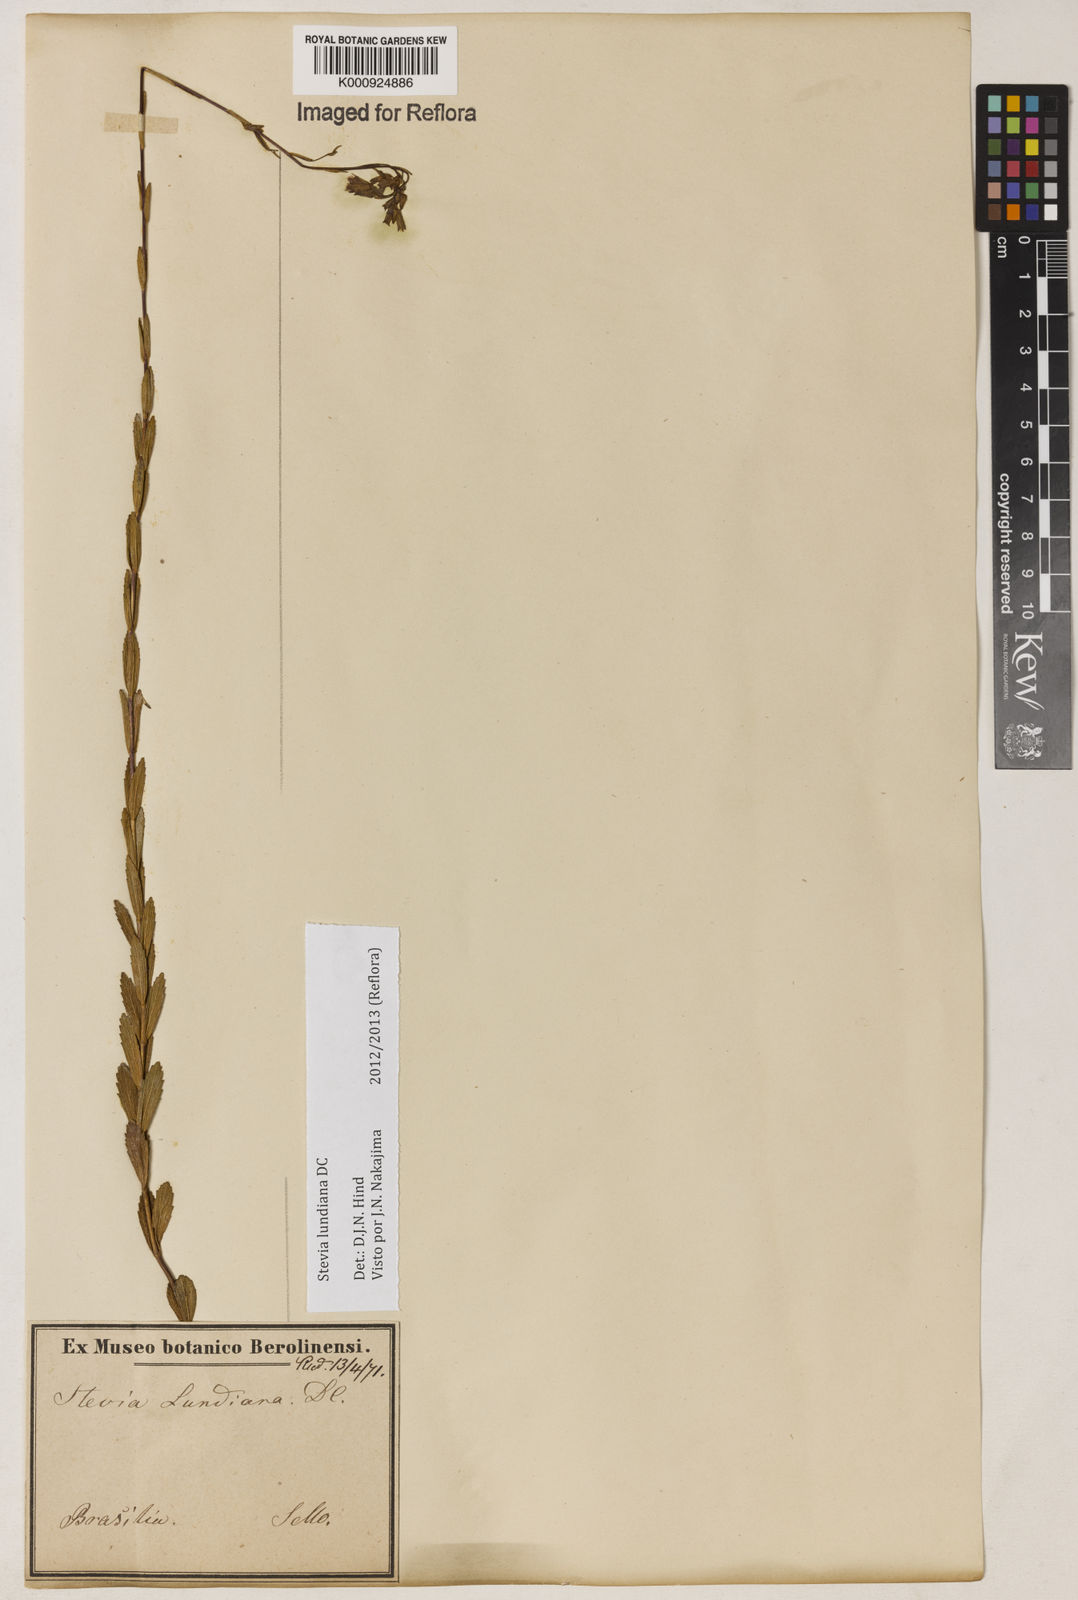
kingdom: Plantae
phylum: Tracheophyta
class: Magnoliopsida
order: Asterales
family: Asteraceae
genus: Stevia
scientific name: Stevia lundiana
